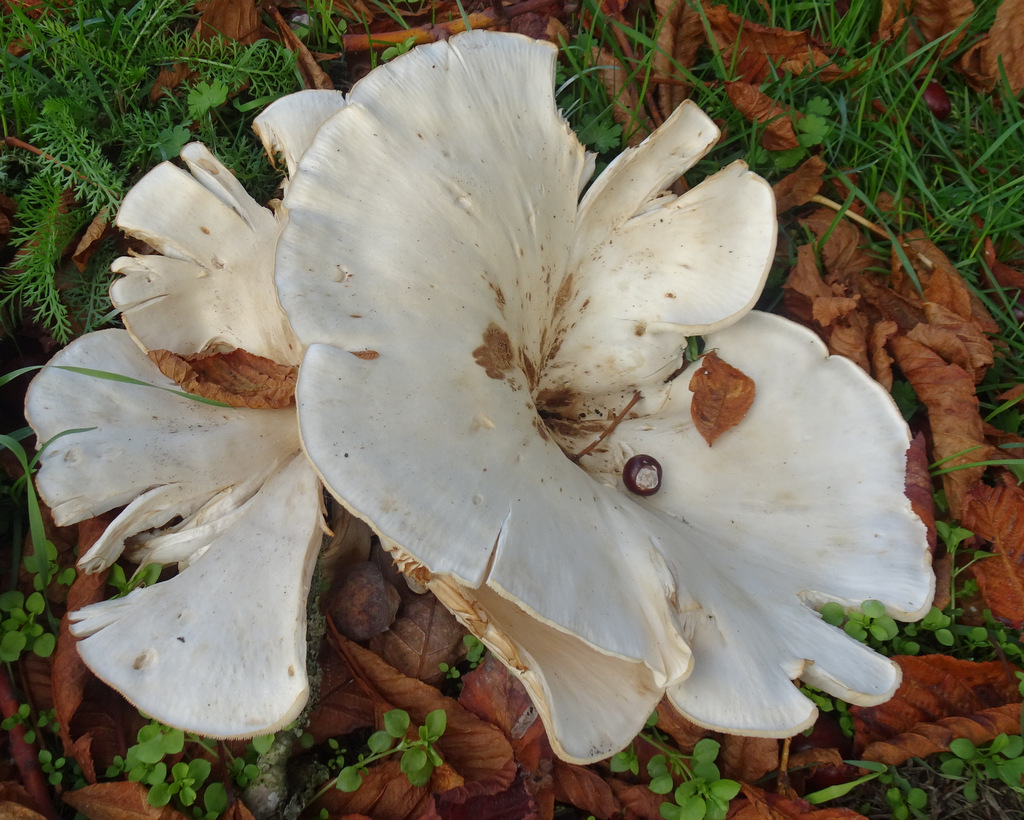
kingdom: Fungi
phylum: Basidiomycota
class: Agaricomycetes
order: Agaricales
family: Tricholomataceae
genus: Aspropaxillus
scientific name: Aspropaxillus giganteus
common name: kæmpe-tragtridderhat
